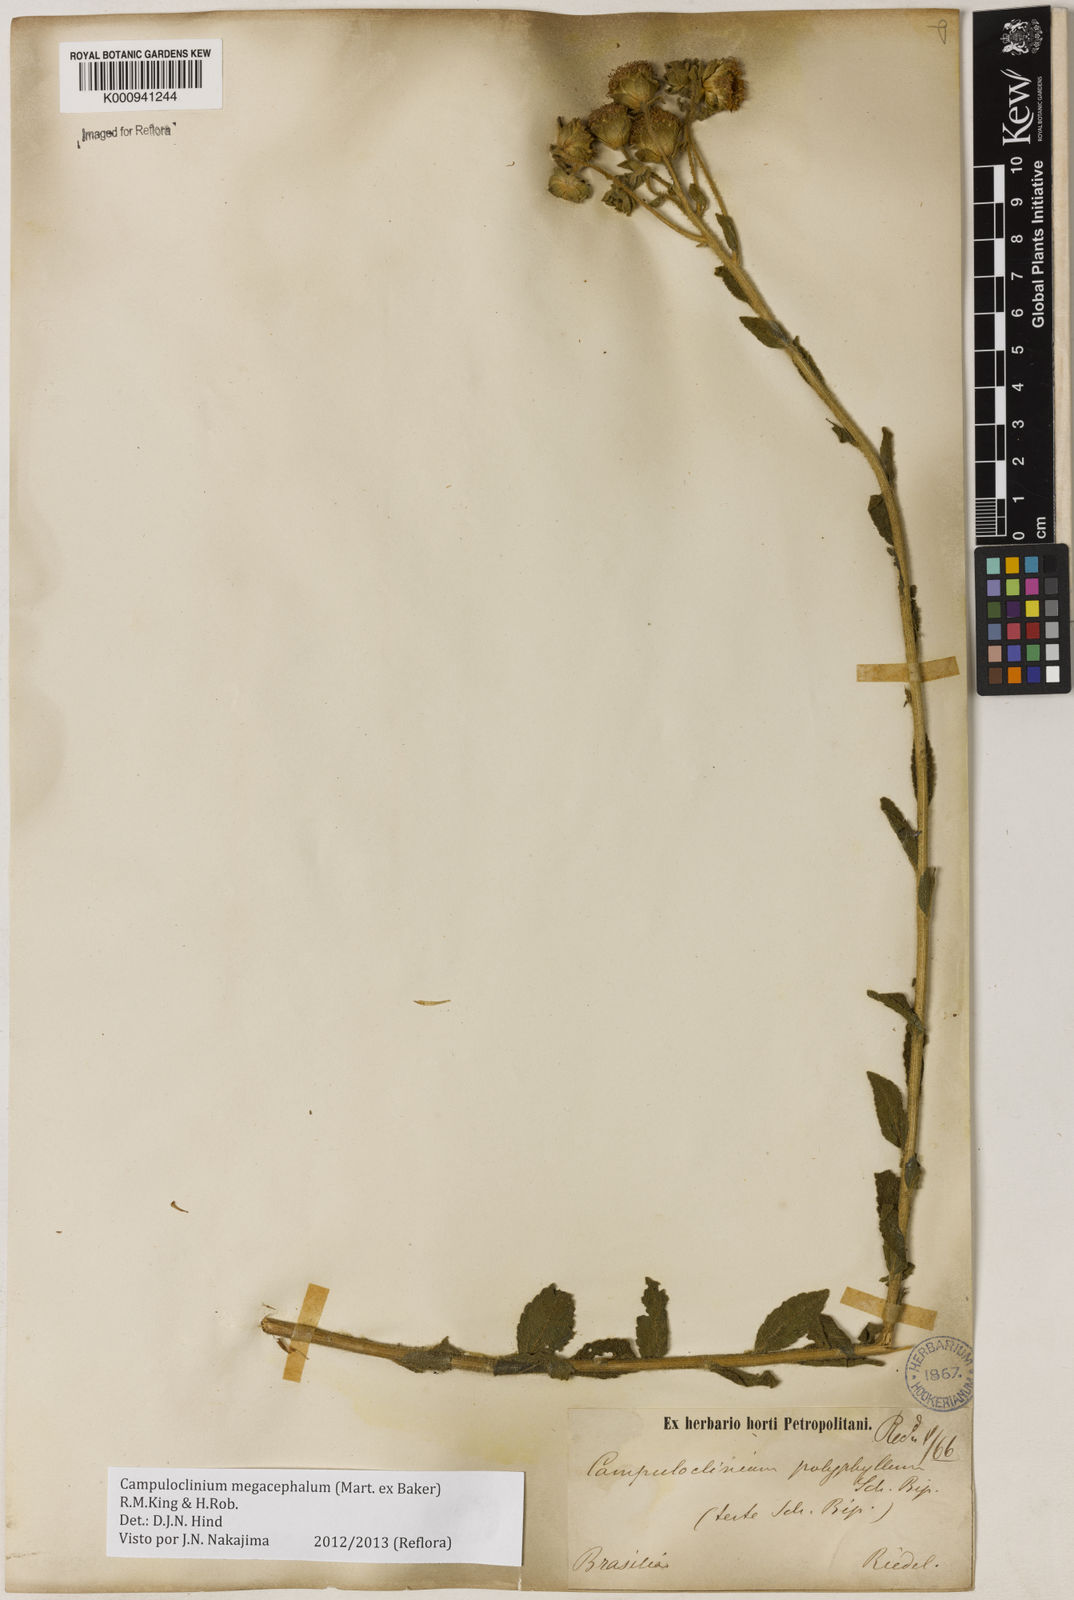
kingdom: Plantae
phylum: Tracheophyta
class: Magnoliopsida
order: Asterales
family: Asteraceae
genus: Campuloclinium
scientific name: Campuloclinium megacephalum
